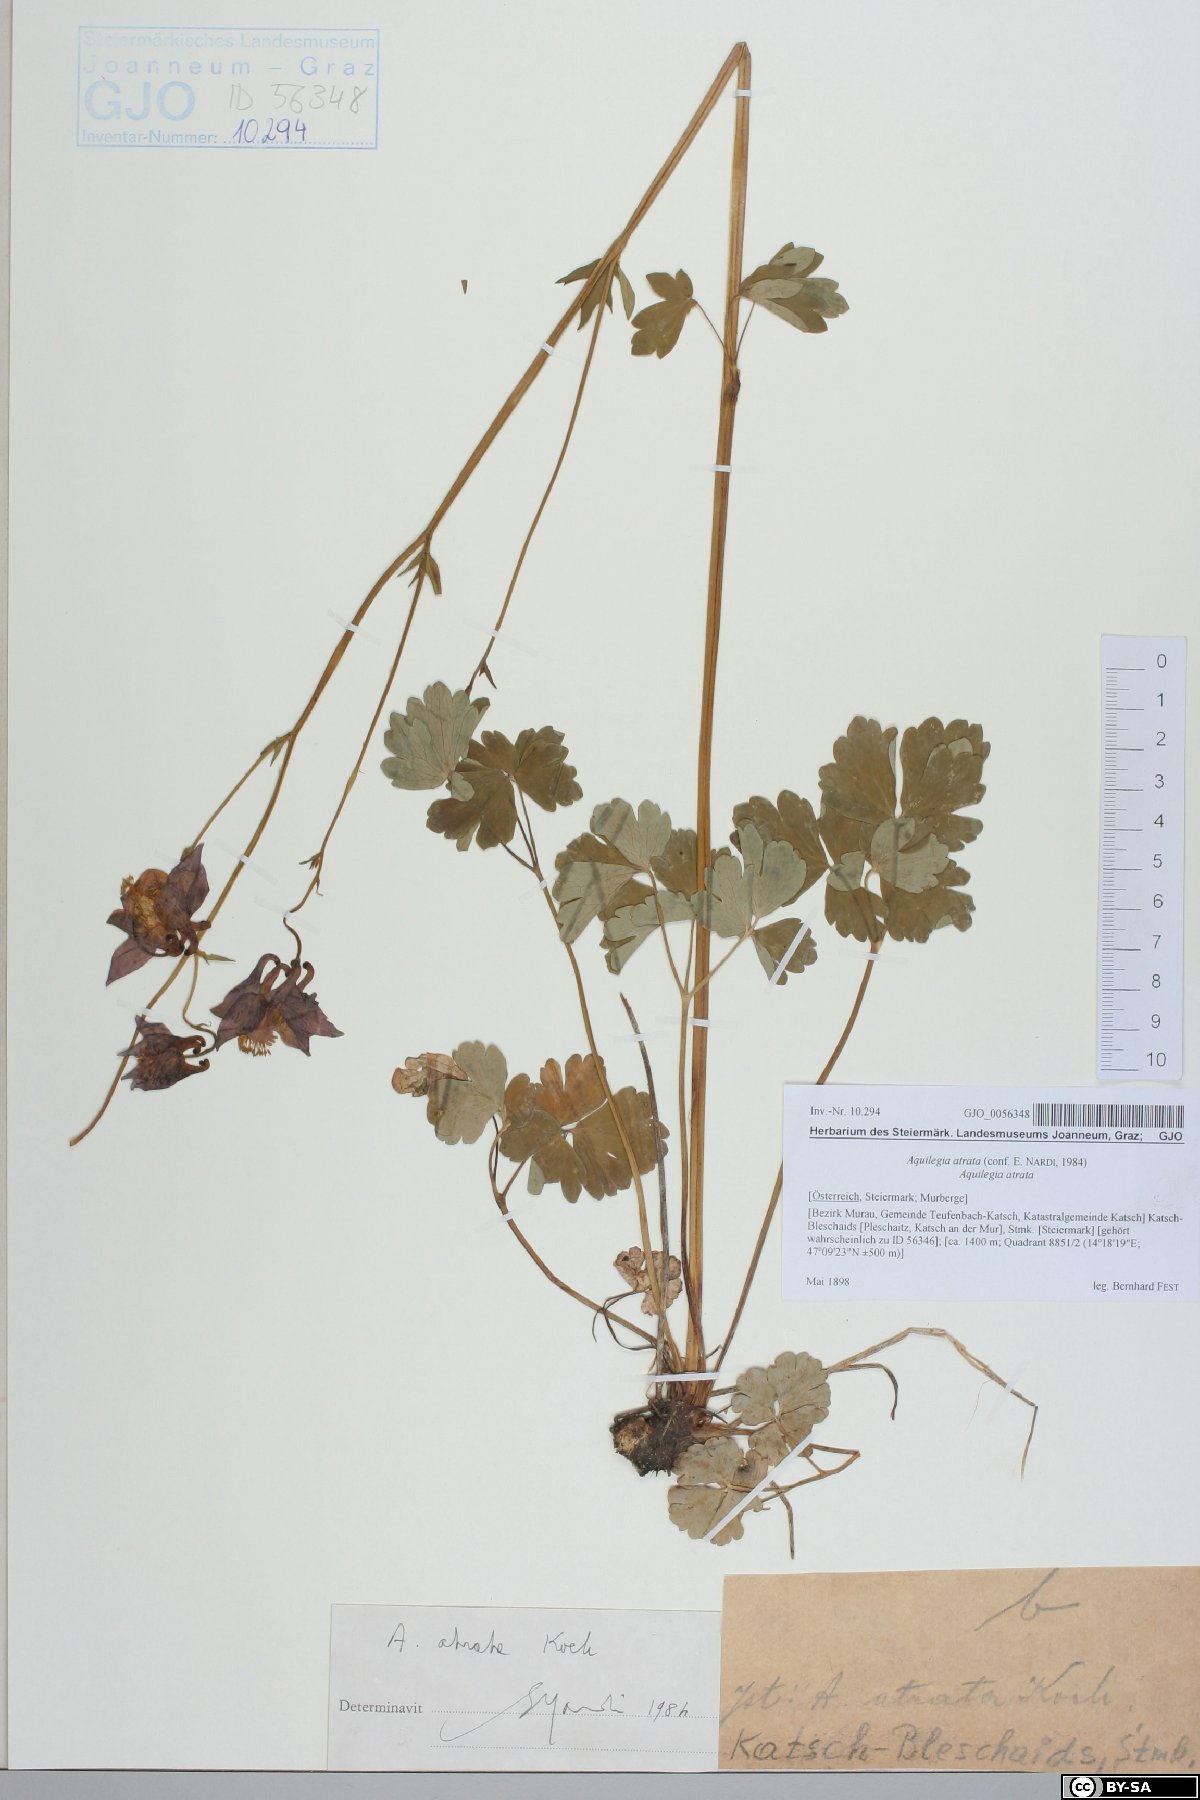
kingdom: Plantae
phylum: Tracheophyta
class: Magnoliopsida
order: Ranunculales
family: Ranunculaceae
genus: Aquilegia
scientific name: Aquilegia atrata
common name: Dark columbine
